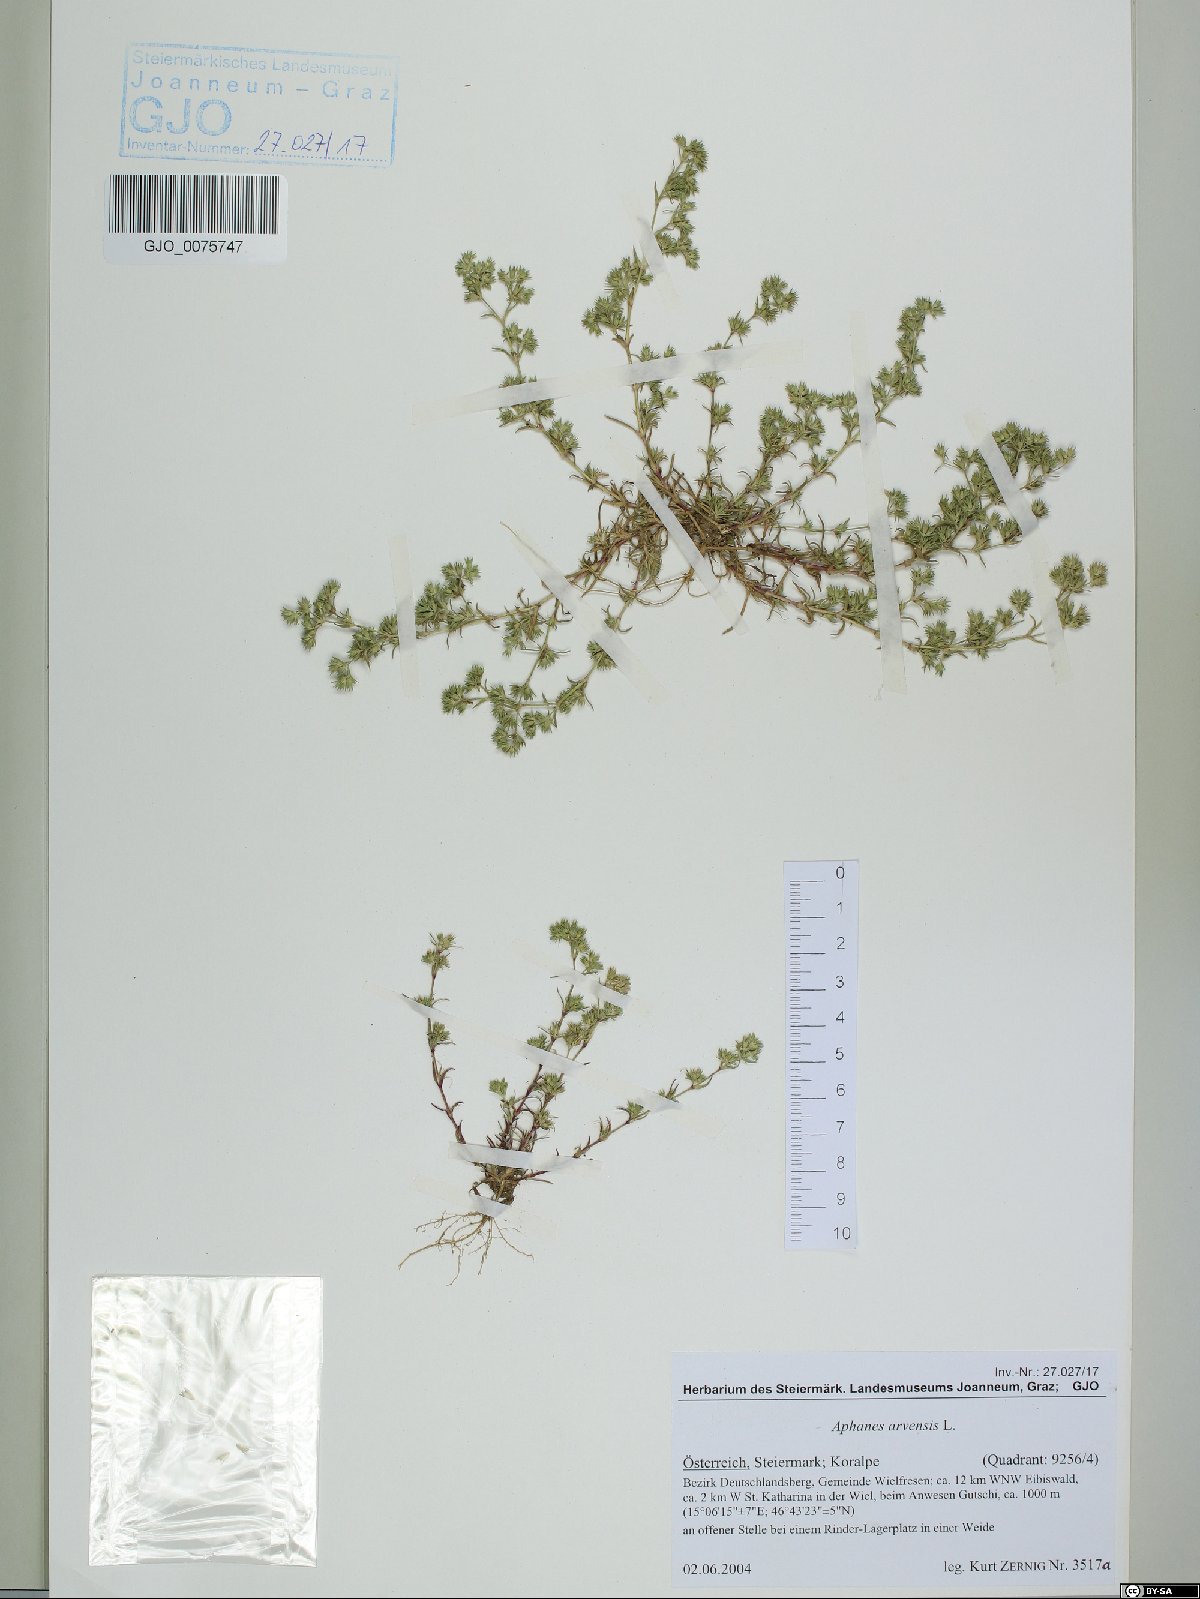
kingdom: Plantae
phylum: Tracheophyta
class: Magnoliopsida
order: Rosales
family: Rosaceae
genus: Aphanes
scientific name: Aphanes arvensis
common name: Parsley-piert
